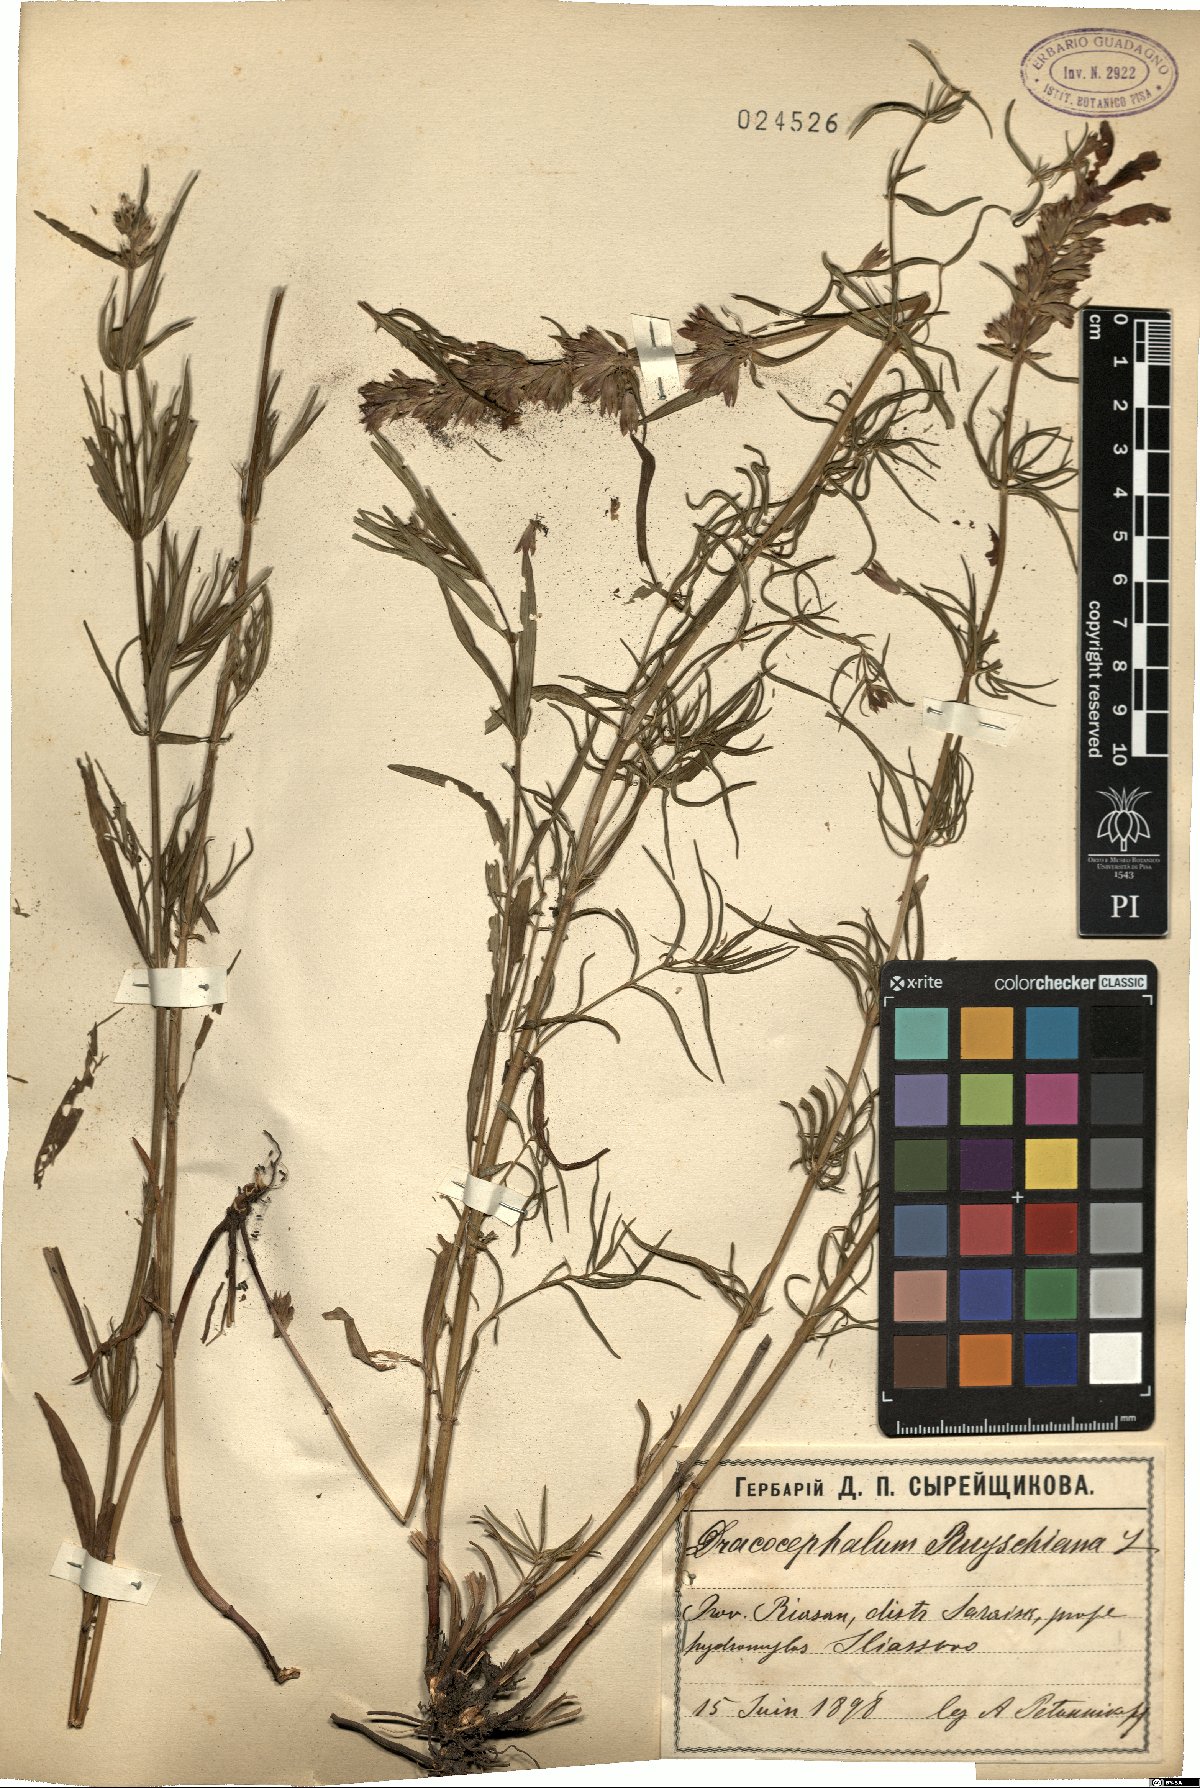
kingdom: Plantae
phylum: Tracheophyta
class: Magnoliopsida
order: Lamiales
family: Lamiaceae
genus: Dracocephalum
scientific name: Dracocephalum ruyschiana
